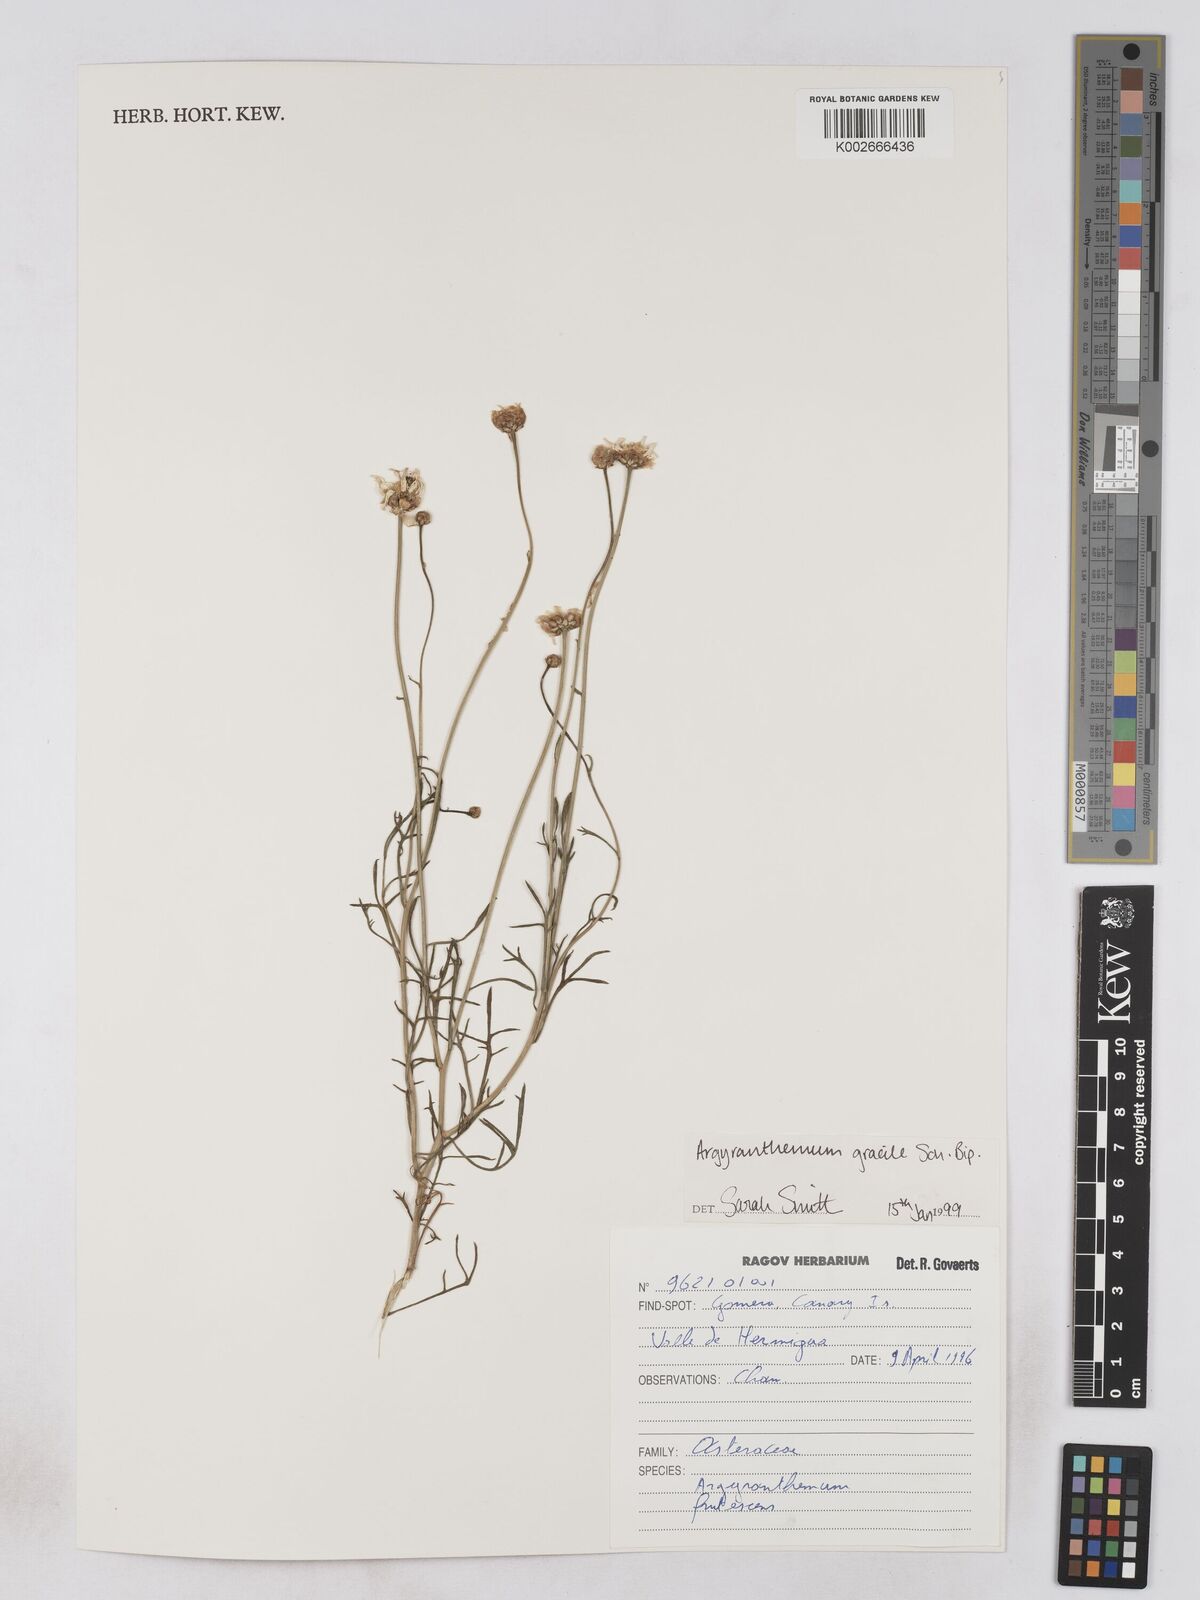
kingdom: Plantae
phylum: Tracheophyta
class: Magnoliopsida
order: Asterales
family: Asteraceae
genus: Argyranthemum
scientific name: Argyranthemum gracile
